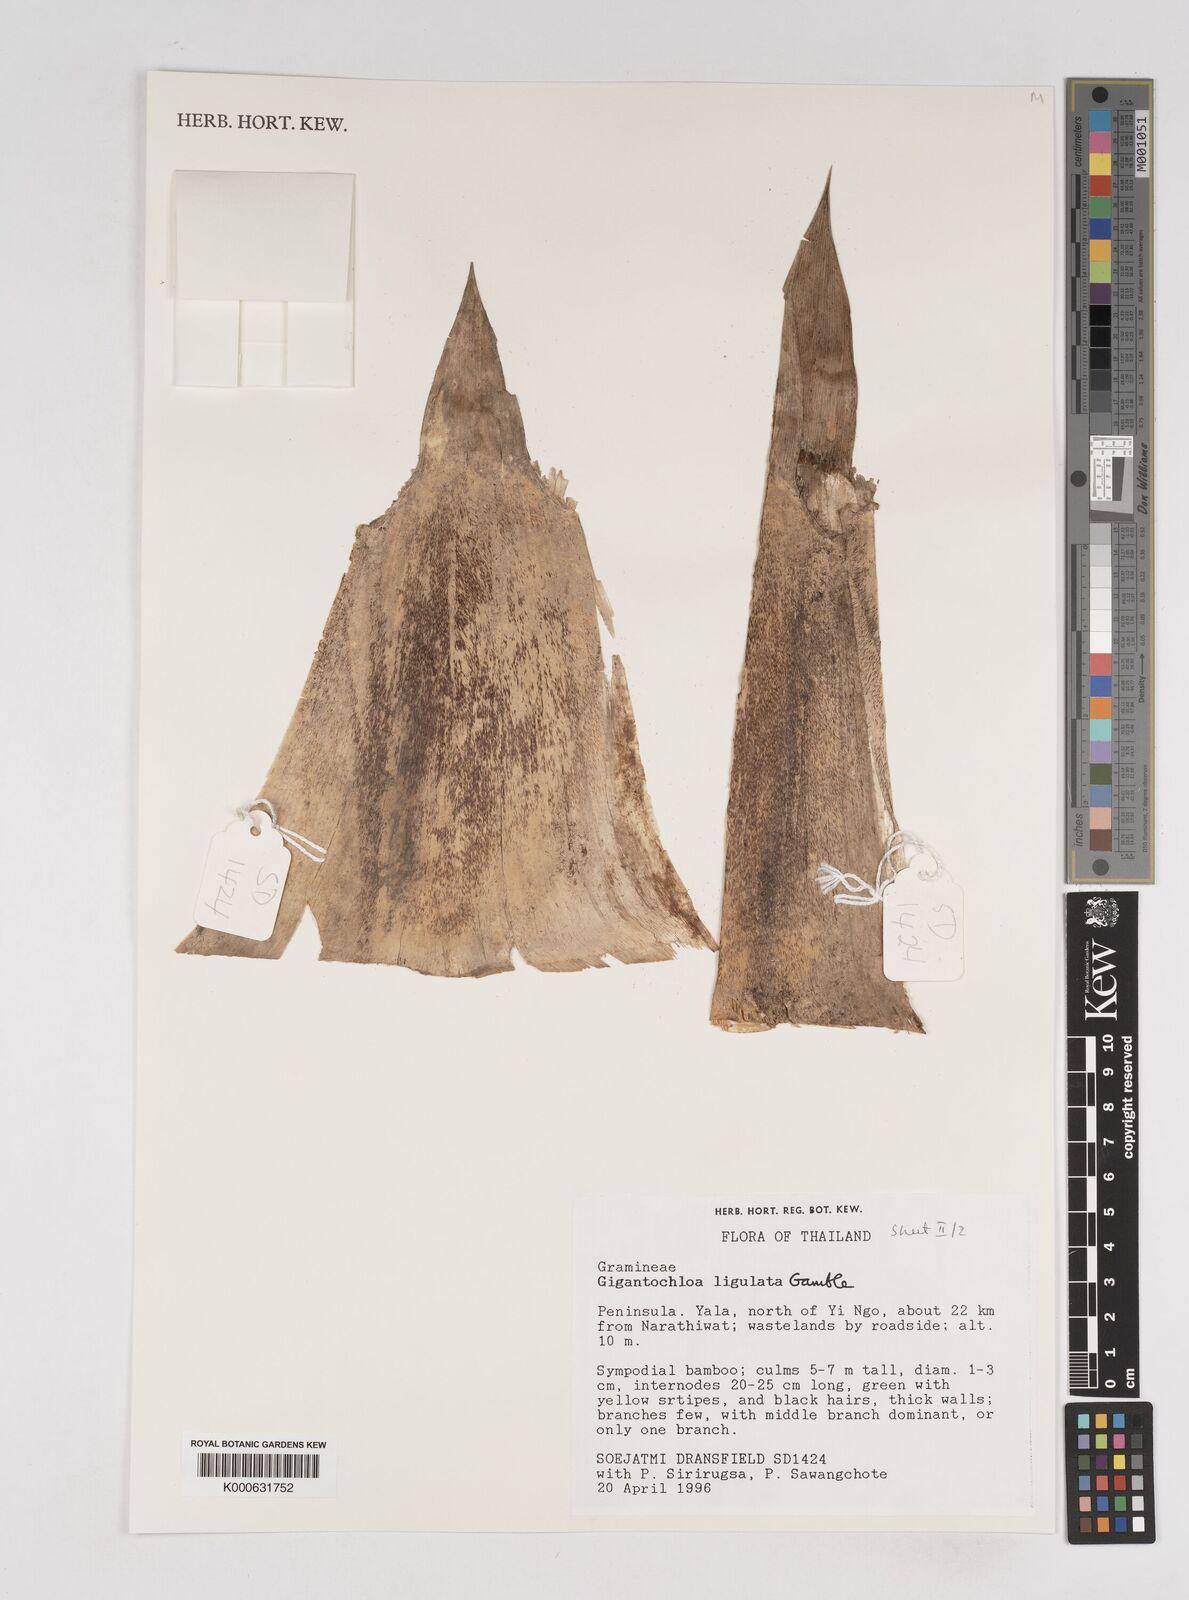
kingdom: Plantae
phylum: Tracheophyta
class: Liliopsida
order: Poales
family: Poaceae
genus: Gigantochloa
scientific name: Gigantochloa ligulata
